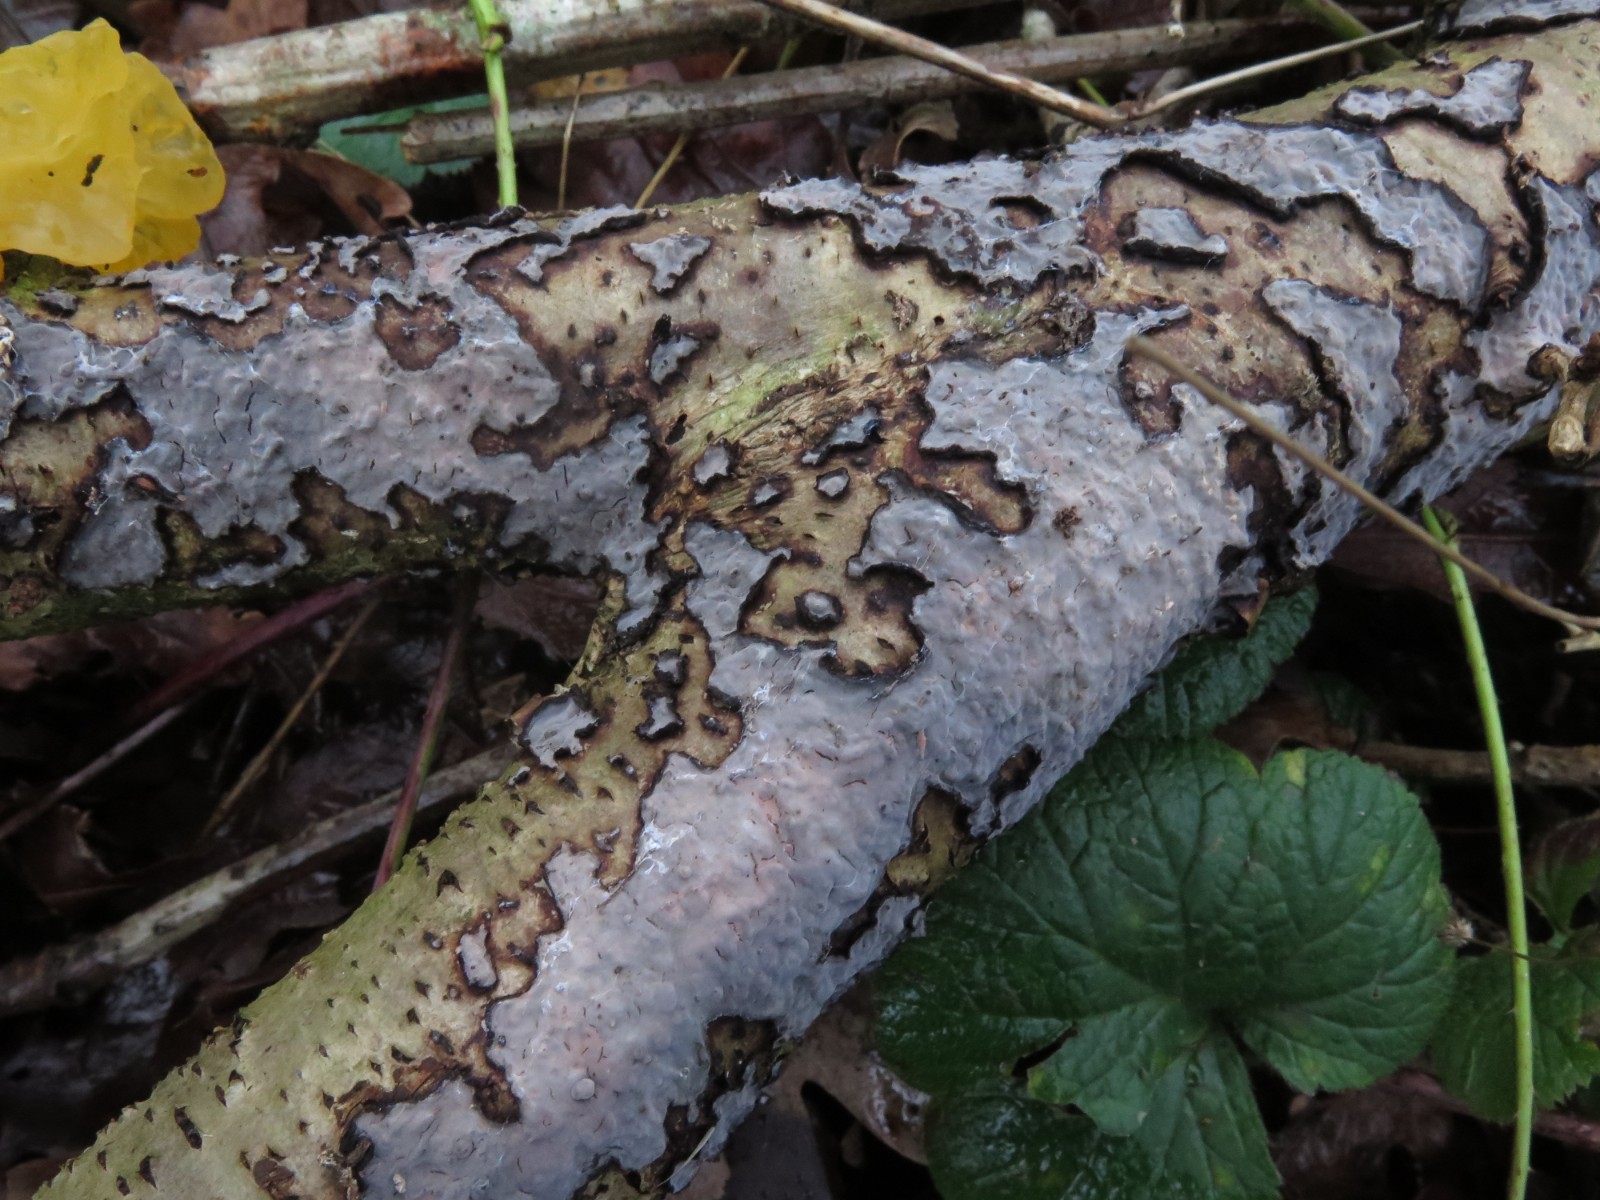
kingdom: Fungi
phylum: Basidiomycota
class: Agaricomycetes
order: Russulales
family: Peniophoraceae
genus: Peniophora
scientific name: Peniophora quercina
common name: ege-voksskind
